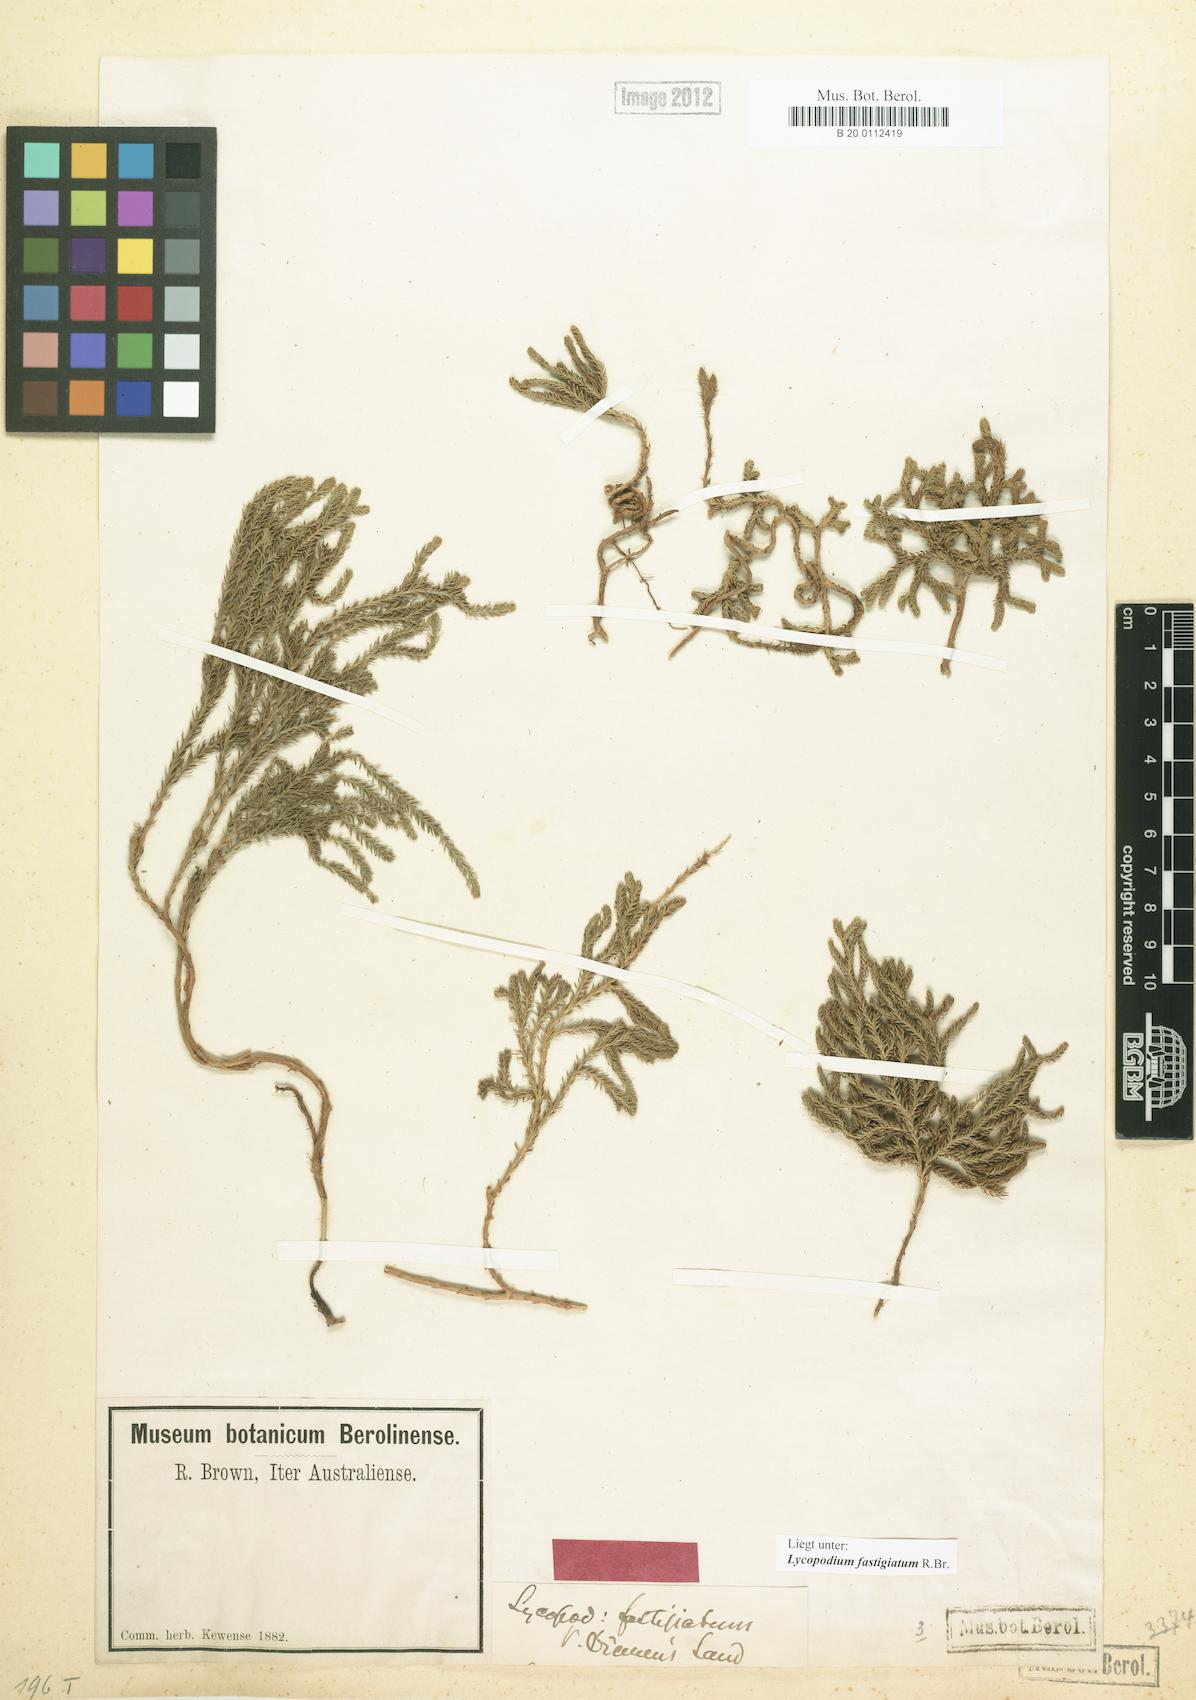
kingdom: Plantae
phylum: Tracheophyta
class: Lycopodiopsida
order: Lycopodiales
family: Lycopodiaceae
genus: Austrolycopodium
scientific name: Austrolycopodium fastigiatum
